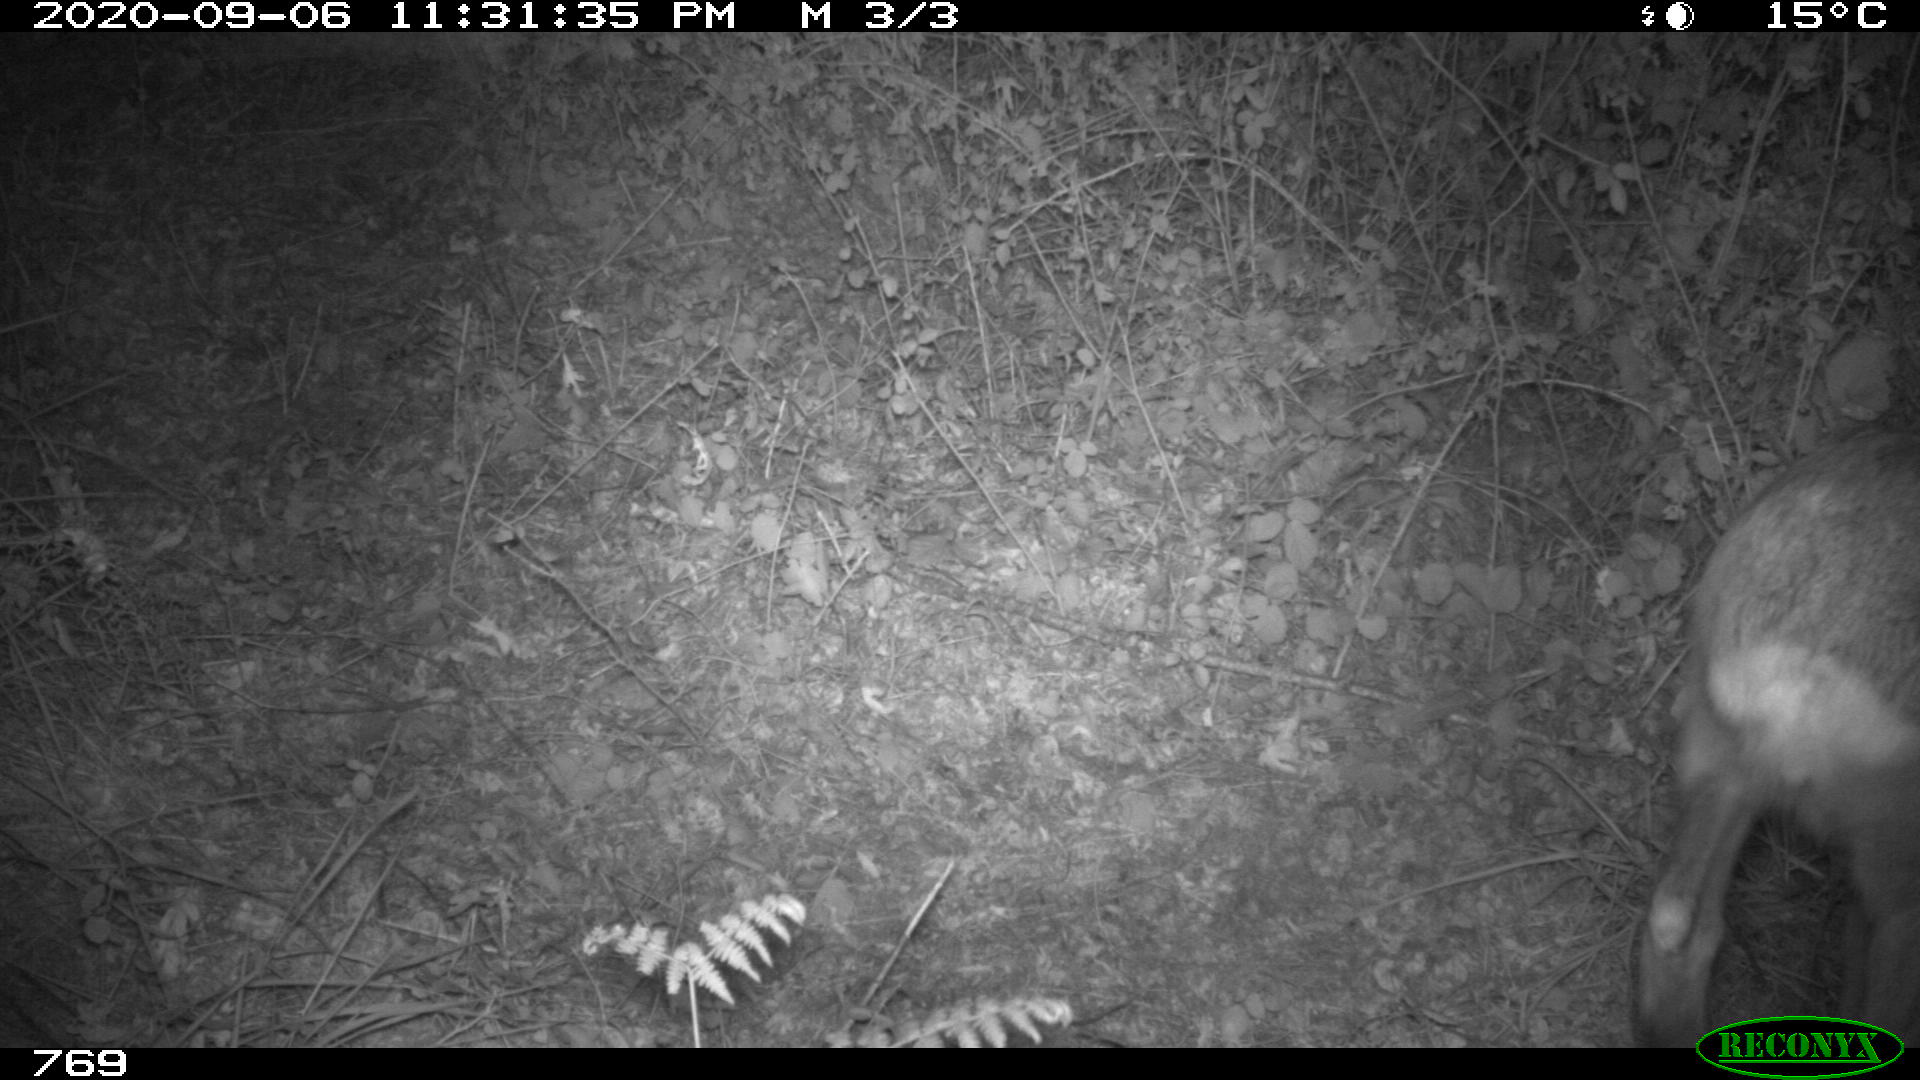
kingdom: Animalia
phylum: Chordata
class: Mammalia
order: Artiodactyla
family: Cervidae
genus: Capreolus
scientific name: Capreolus capreolus
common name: Western roe deer
